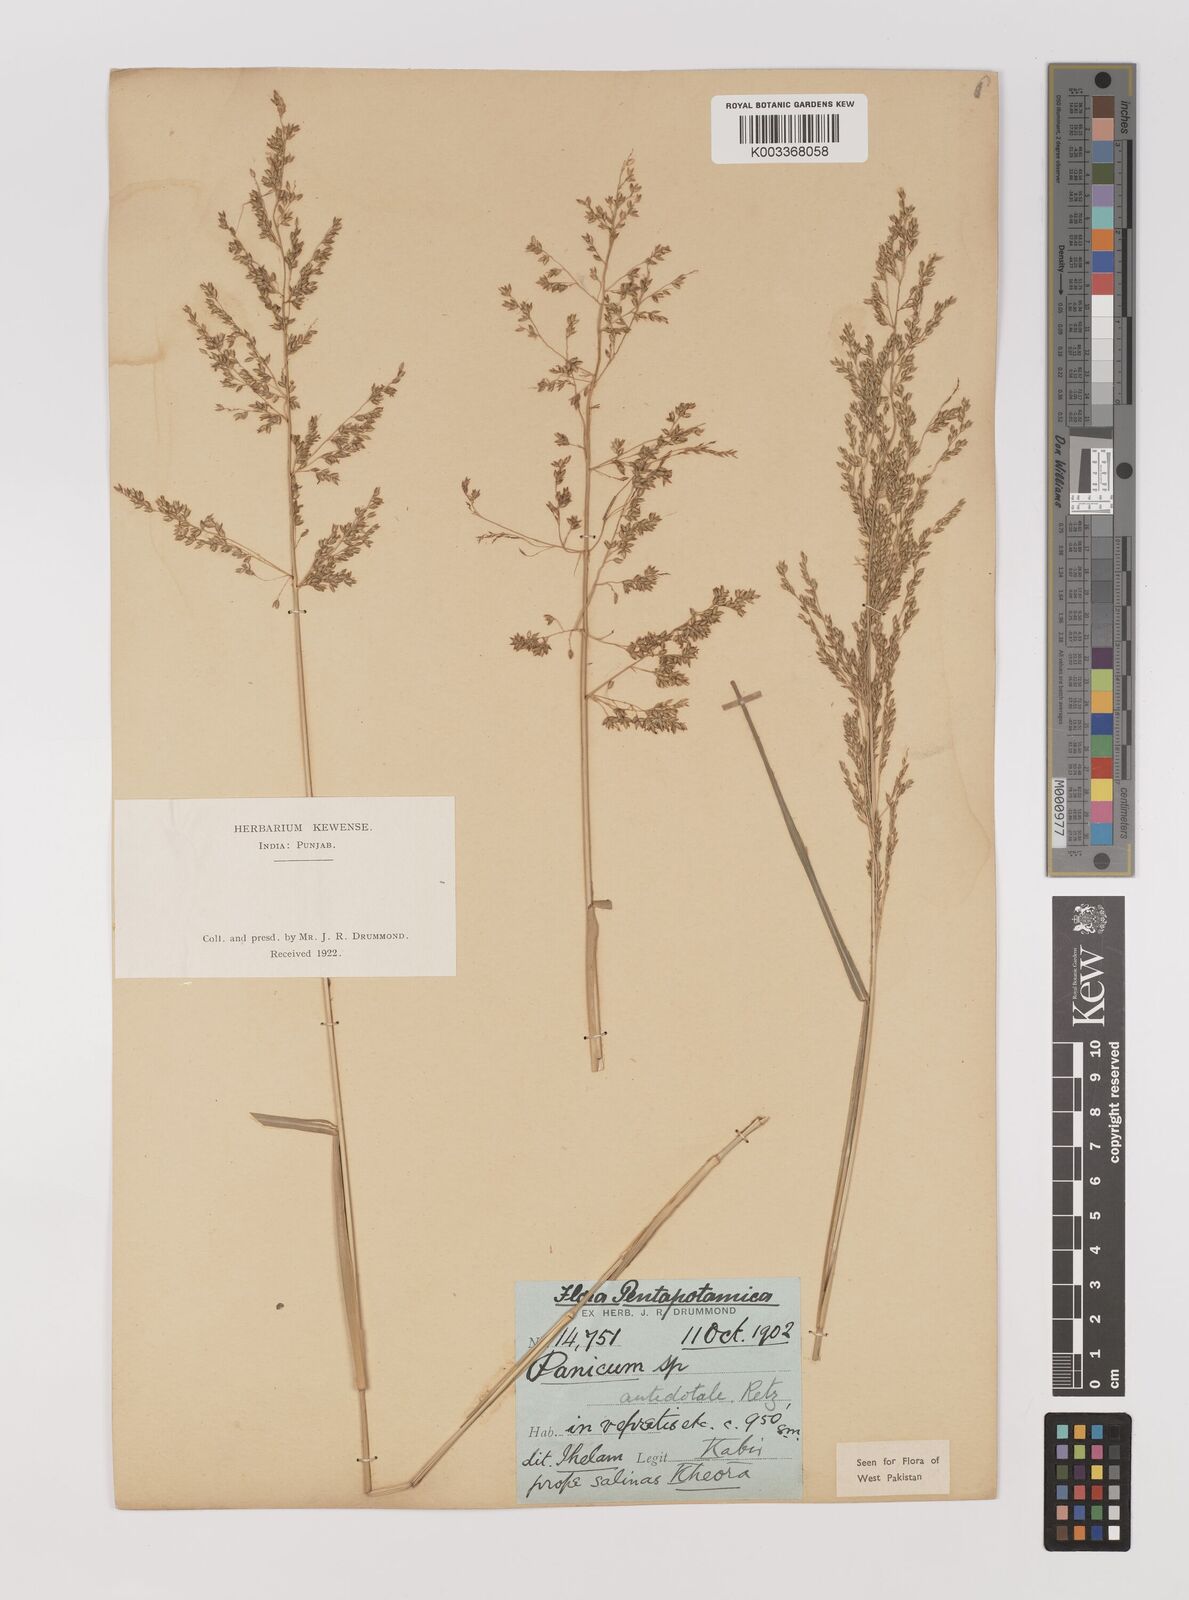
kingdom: Plantae
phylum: Tracheophyta
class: Liliopsida
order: Poales
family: Poaceae
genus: Panicum
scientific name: Panicum antidotale
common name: Blue panicum
